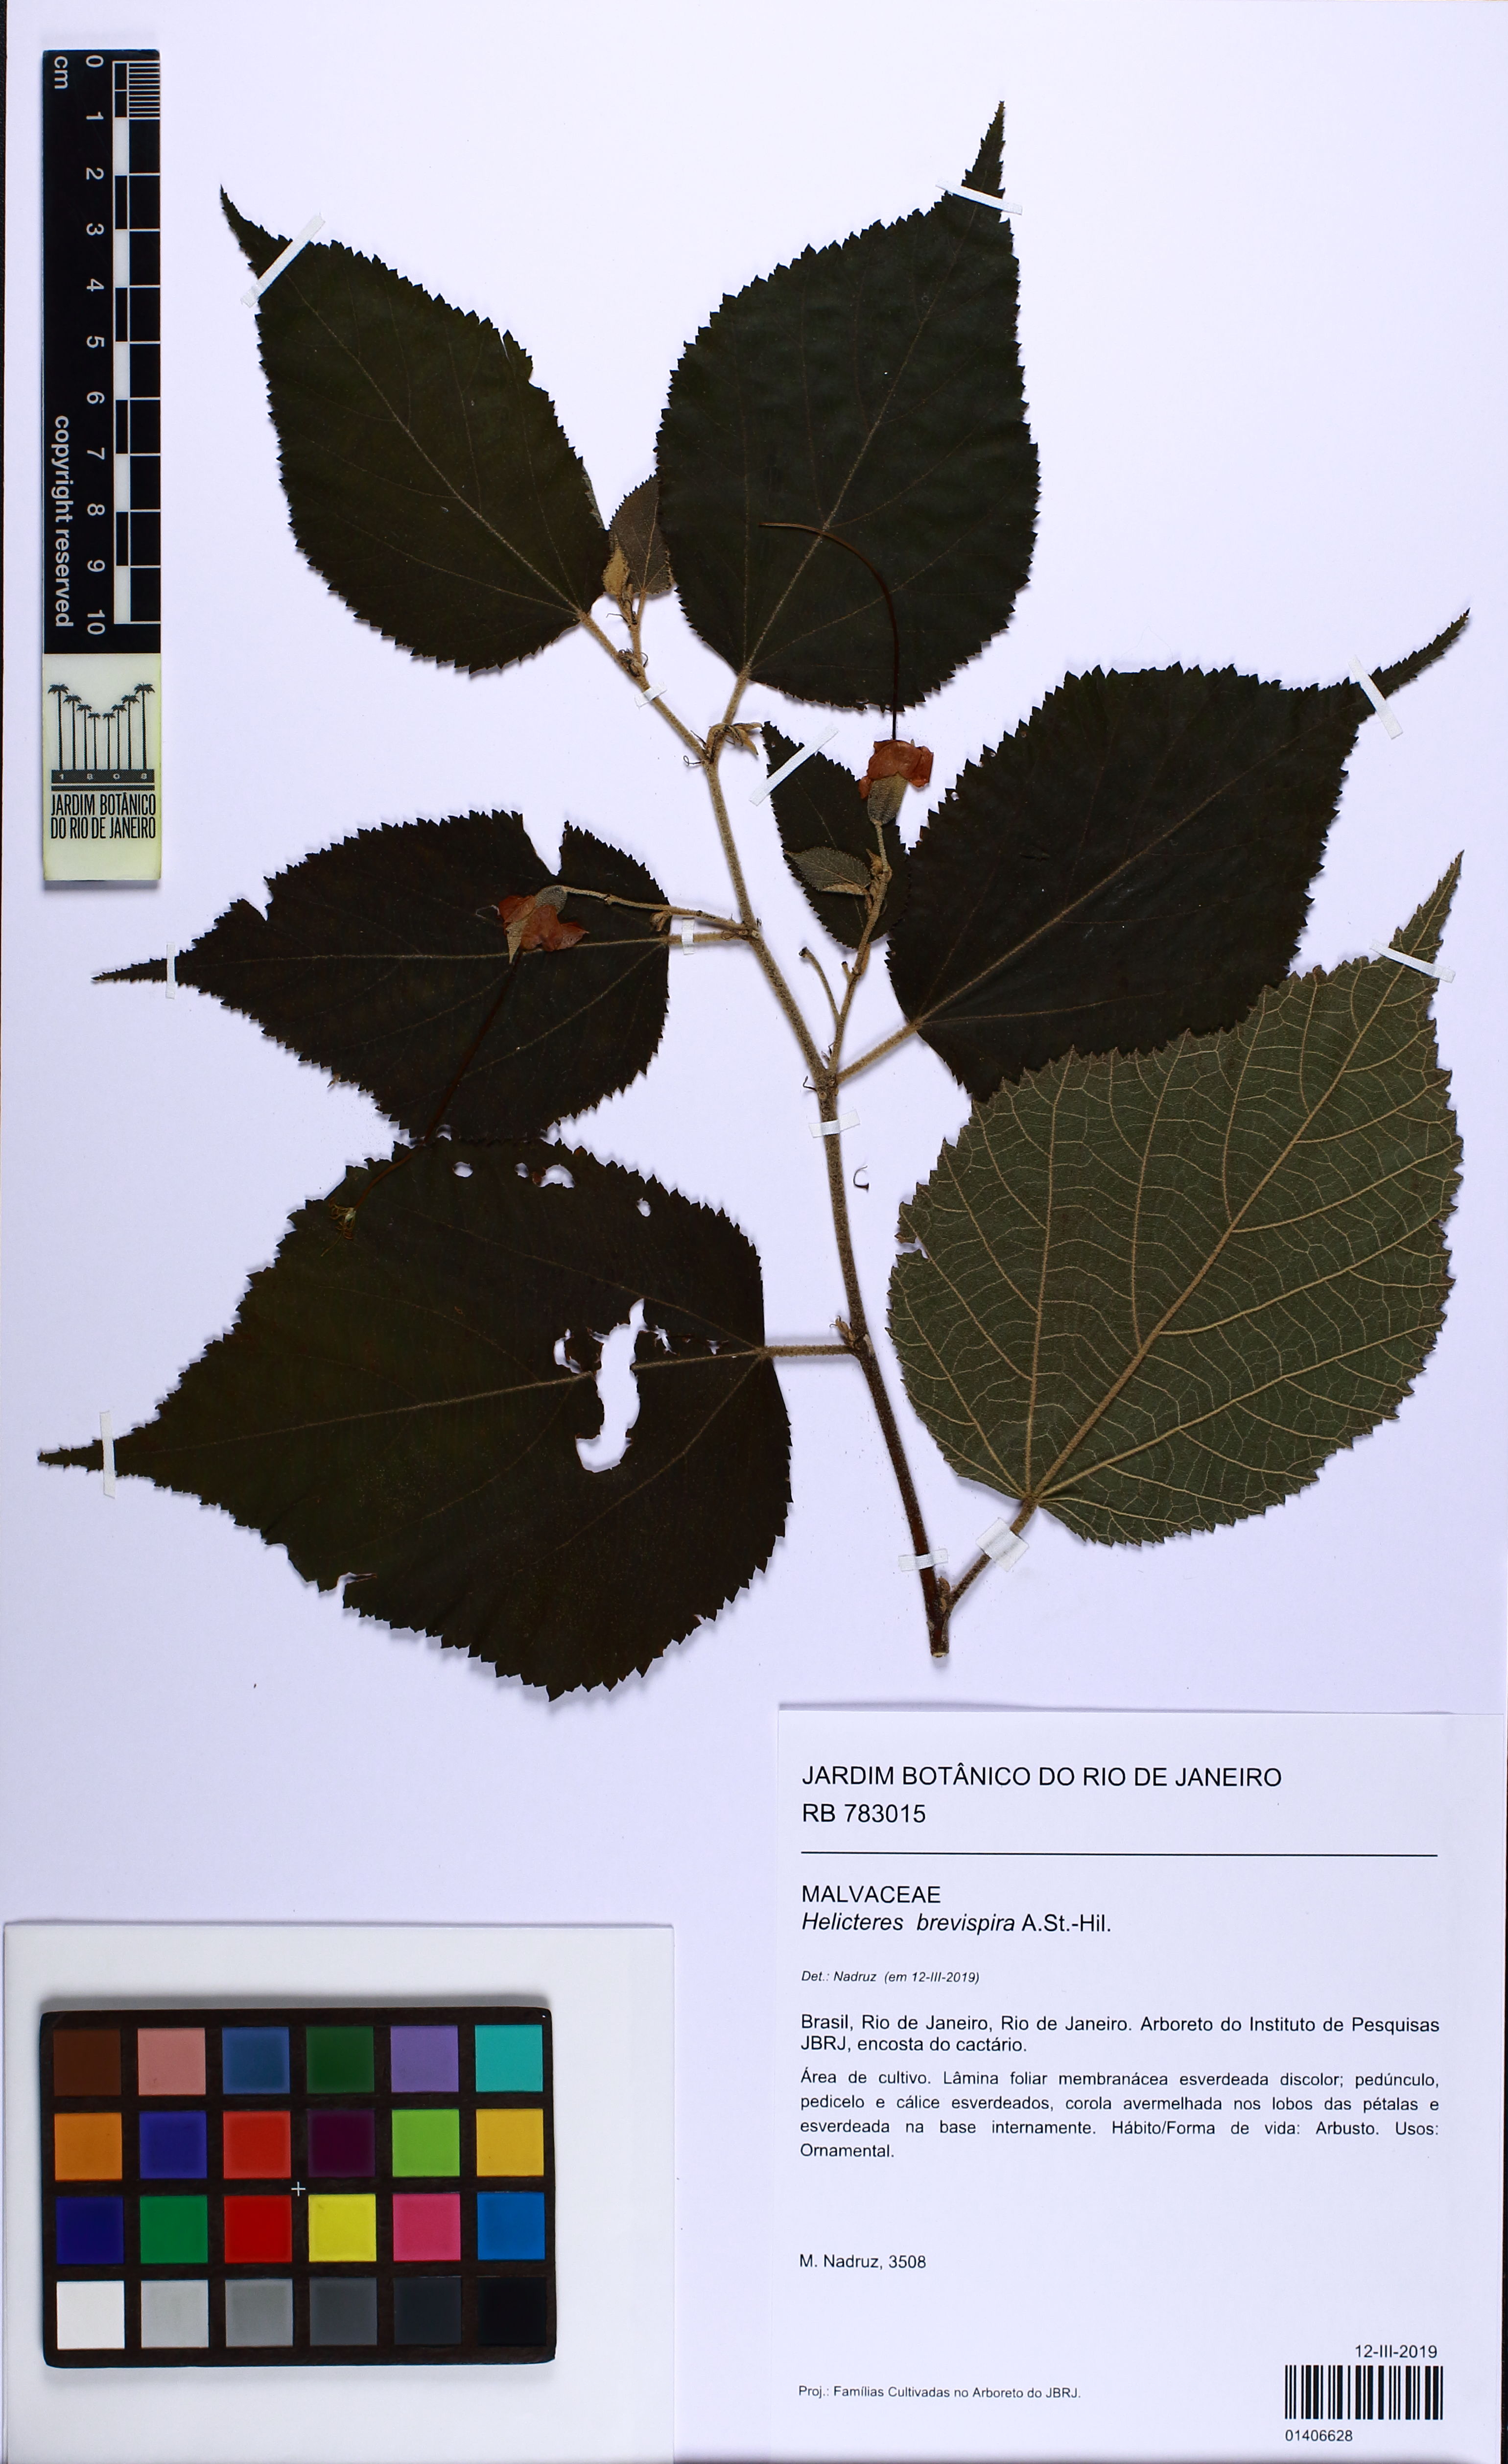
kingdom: Plantae
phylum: Tracheophyta
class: Magnoliopsida
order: Malvales
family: Malvaceae
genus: Helicteres
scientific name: Helicteres brevispira
